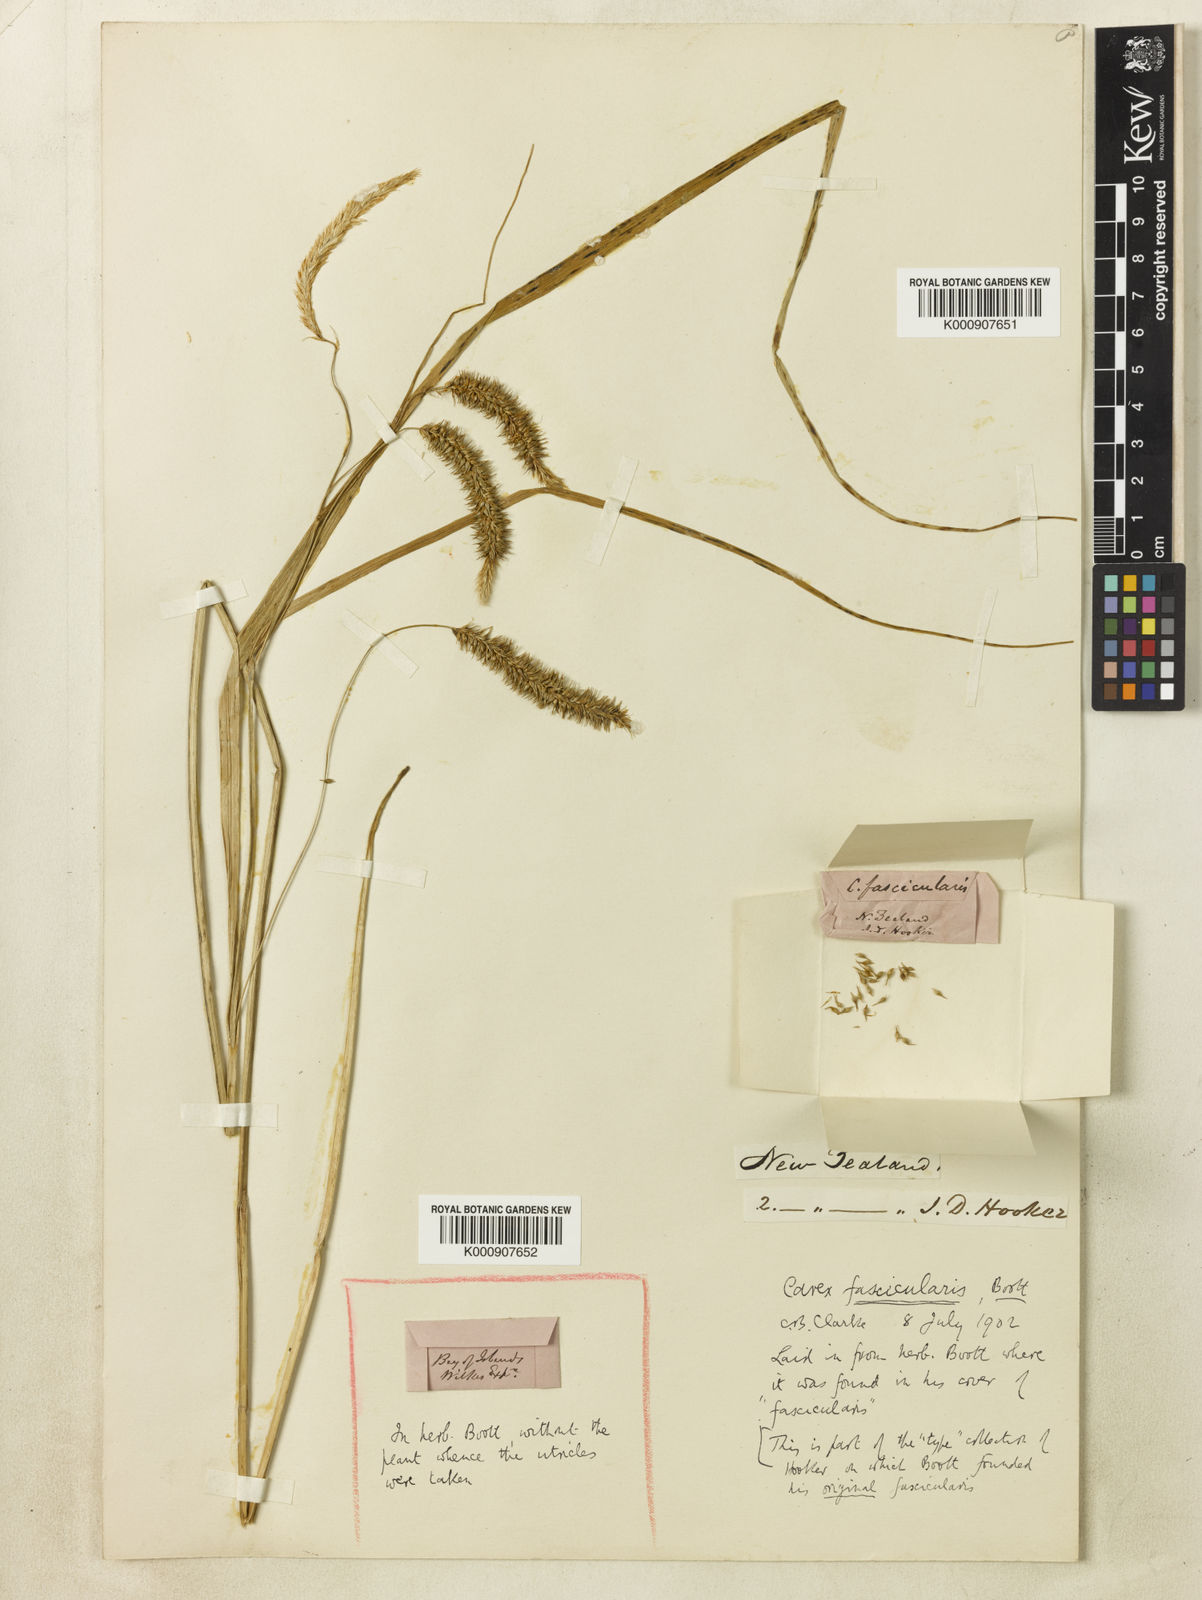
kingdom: Plantae
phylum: Tracheophyta
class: Liliopsida
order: Poales
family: Cyperaceae
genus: Carex
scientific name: Carex fascicularis
